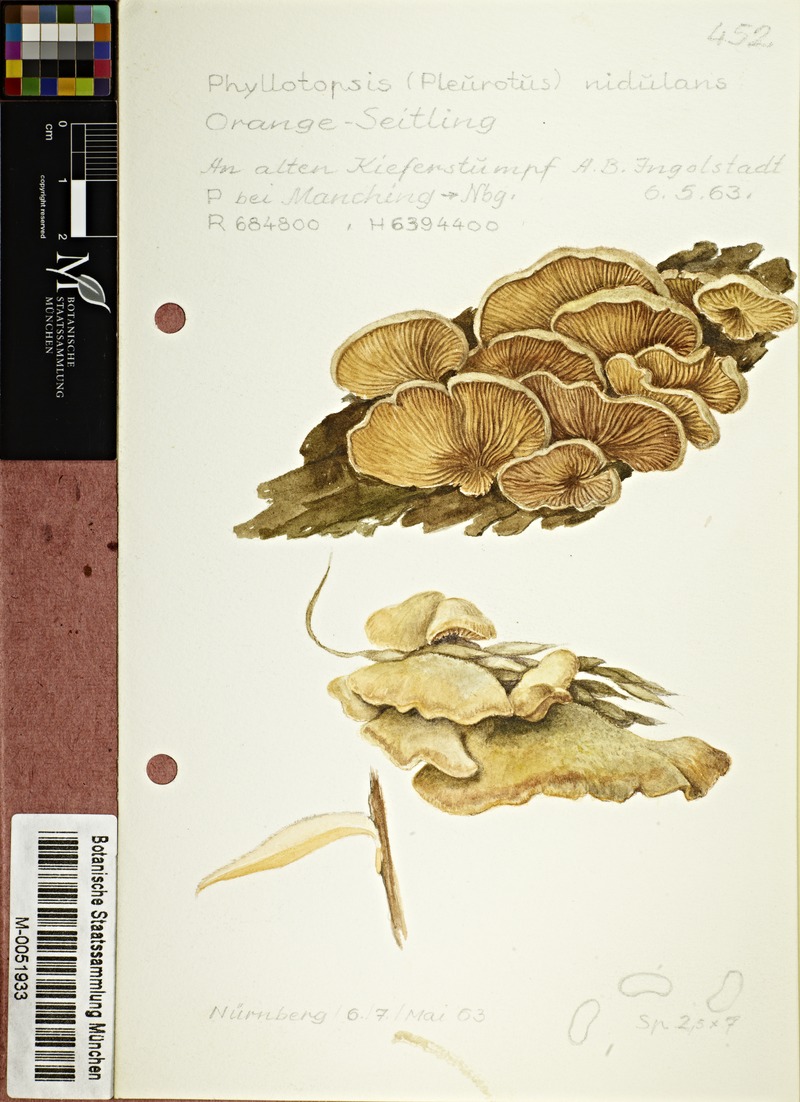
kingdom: Fungi
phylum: Basidiomycota
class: Agaricomycetes
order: Agaricales
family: Phyllotopsidaceae
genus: Phyllotopsis
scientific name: Phyllotopsis nidulans
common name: Orange mock oyster
